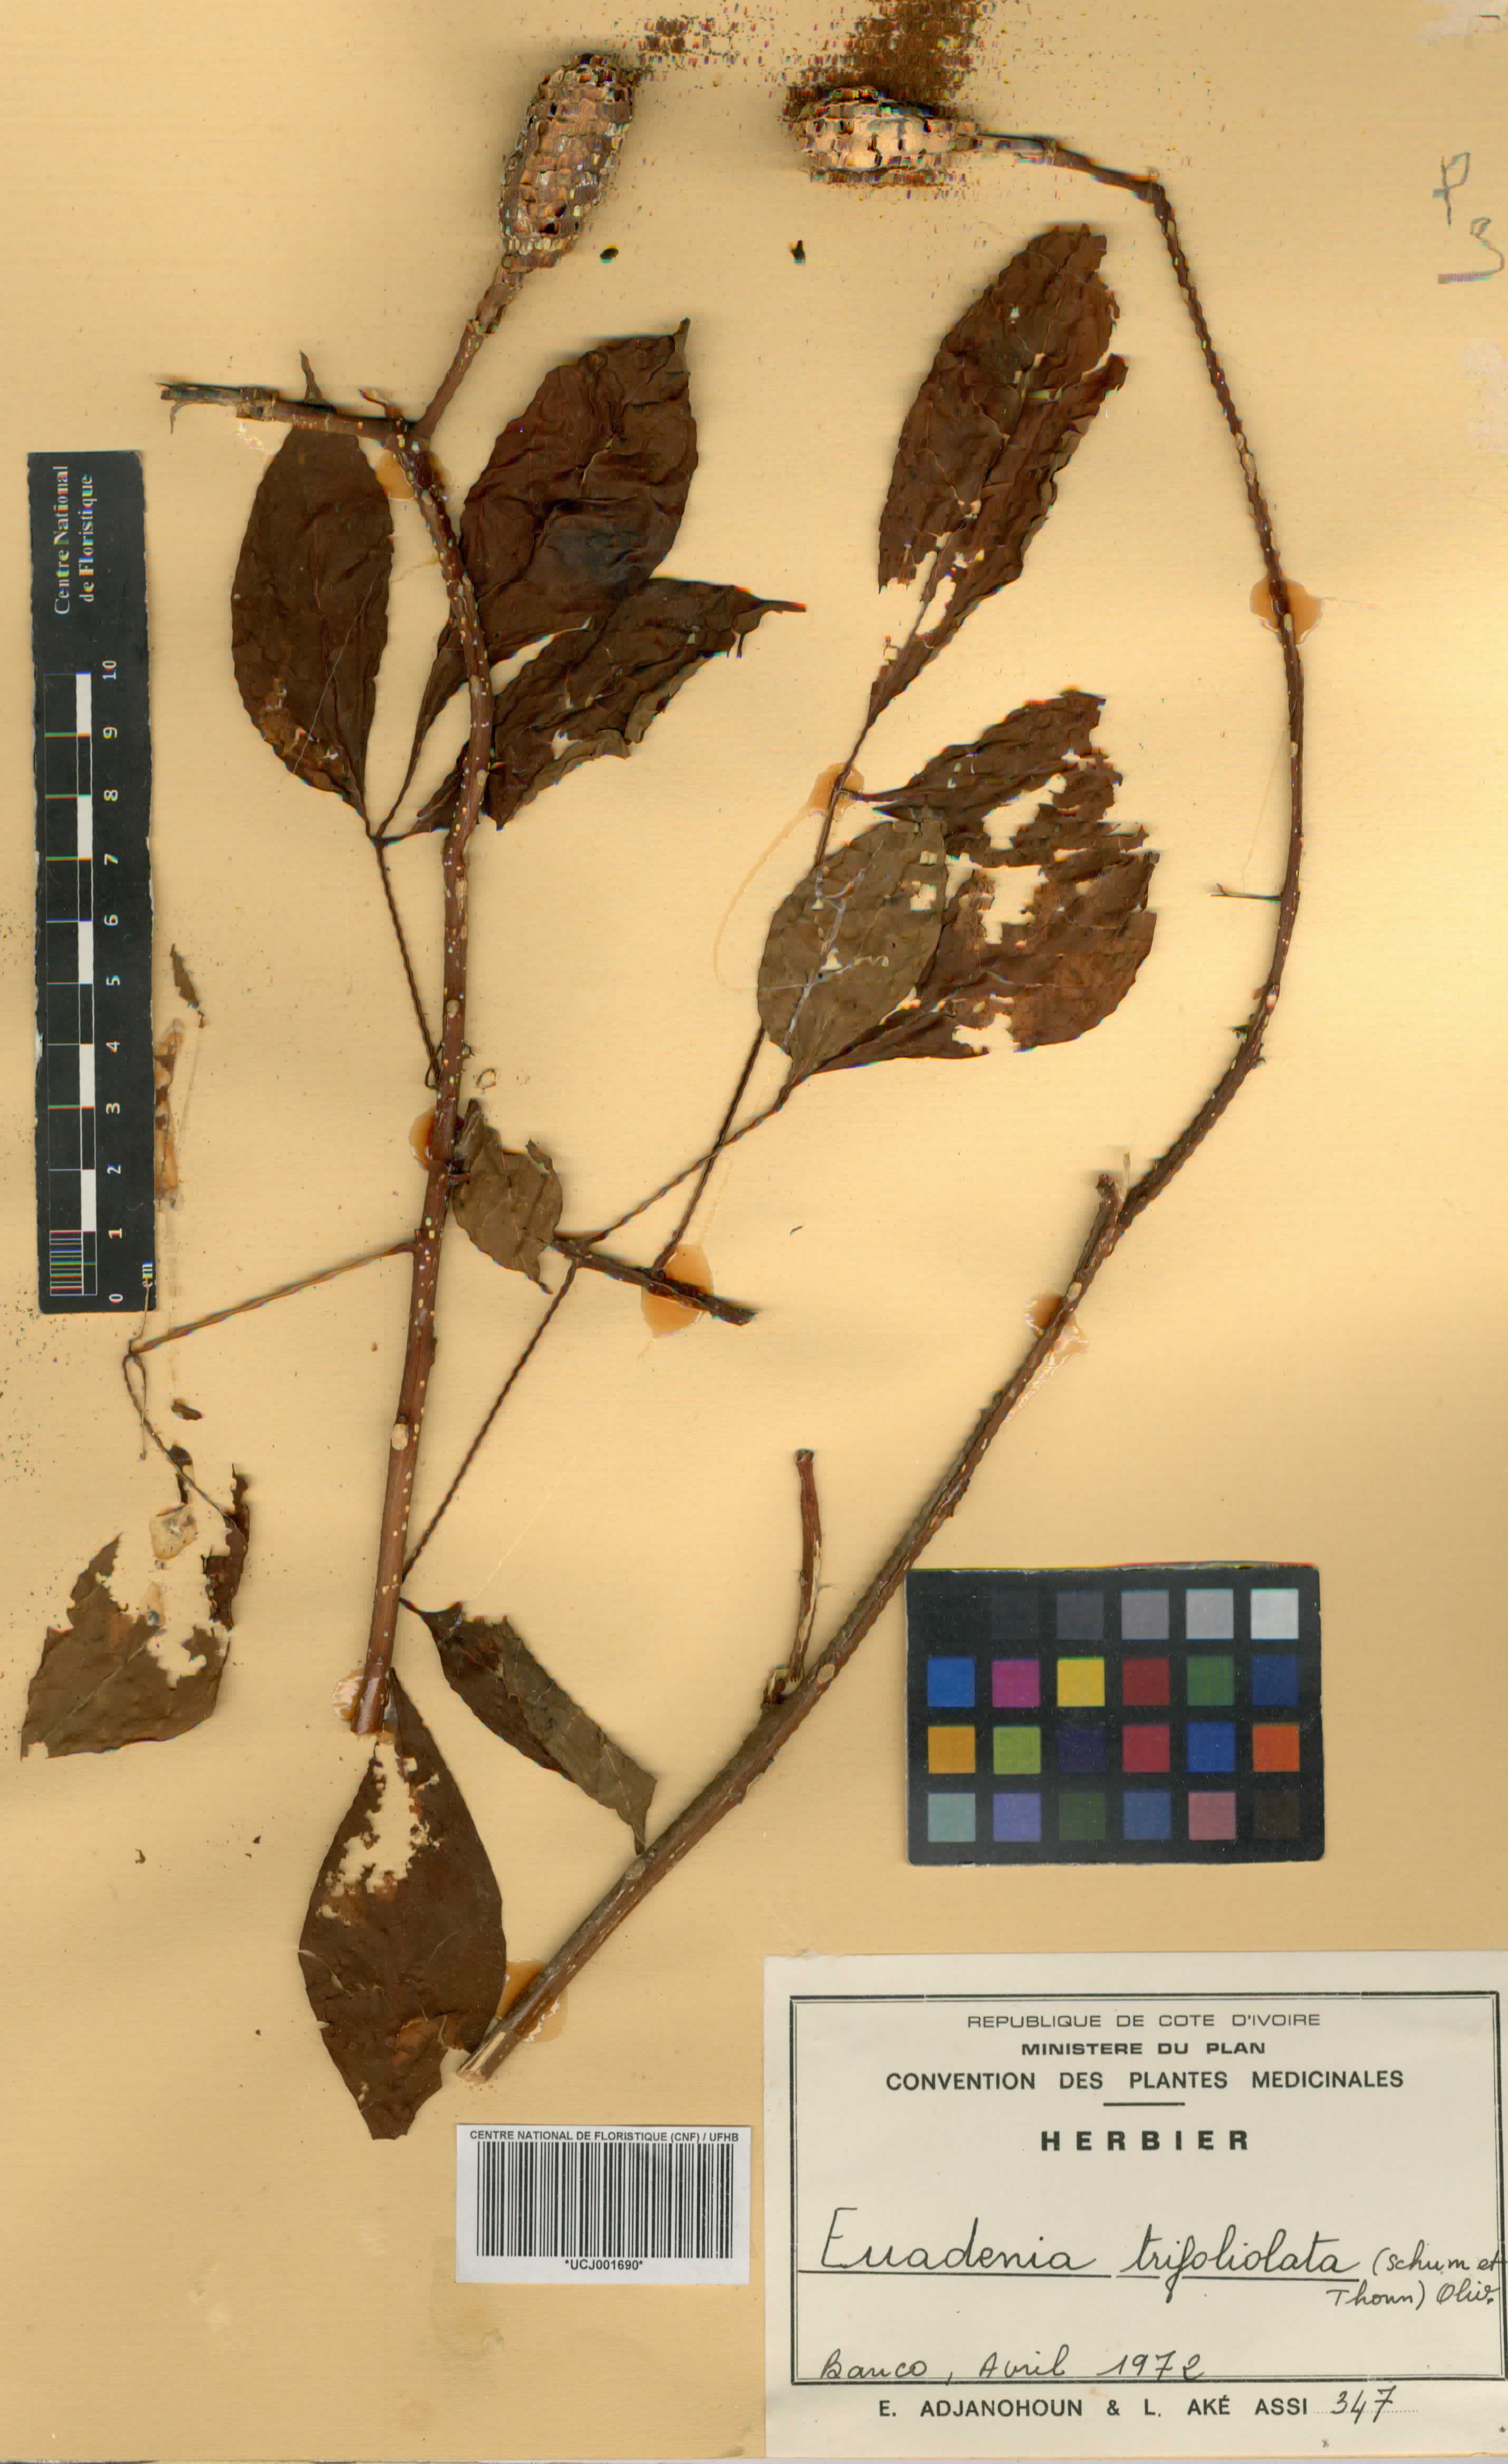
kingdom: Plantae
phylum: Tracheophyta
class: Magnoliopsida
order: Brassicales
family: Capparaceae
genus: Euadenia
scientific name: Euadenia trifoliolata
